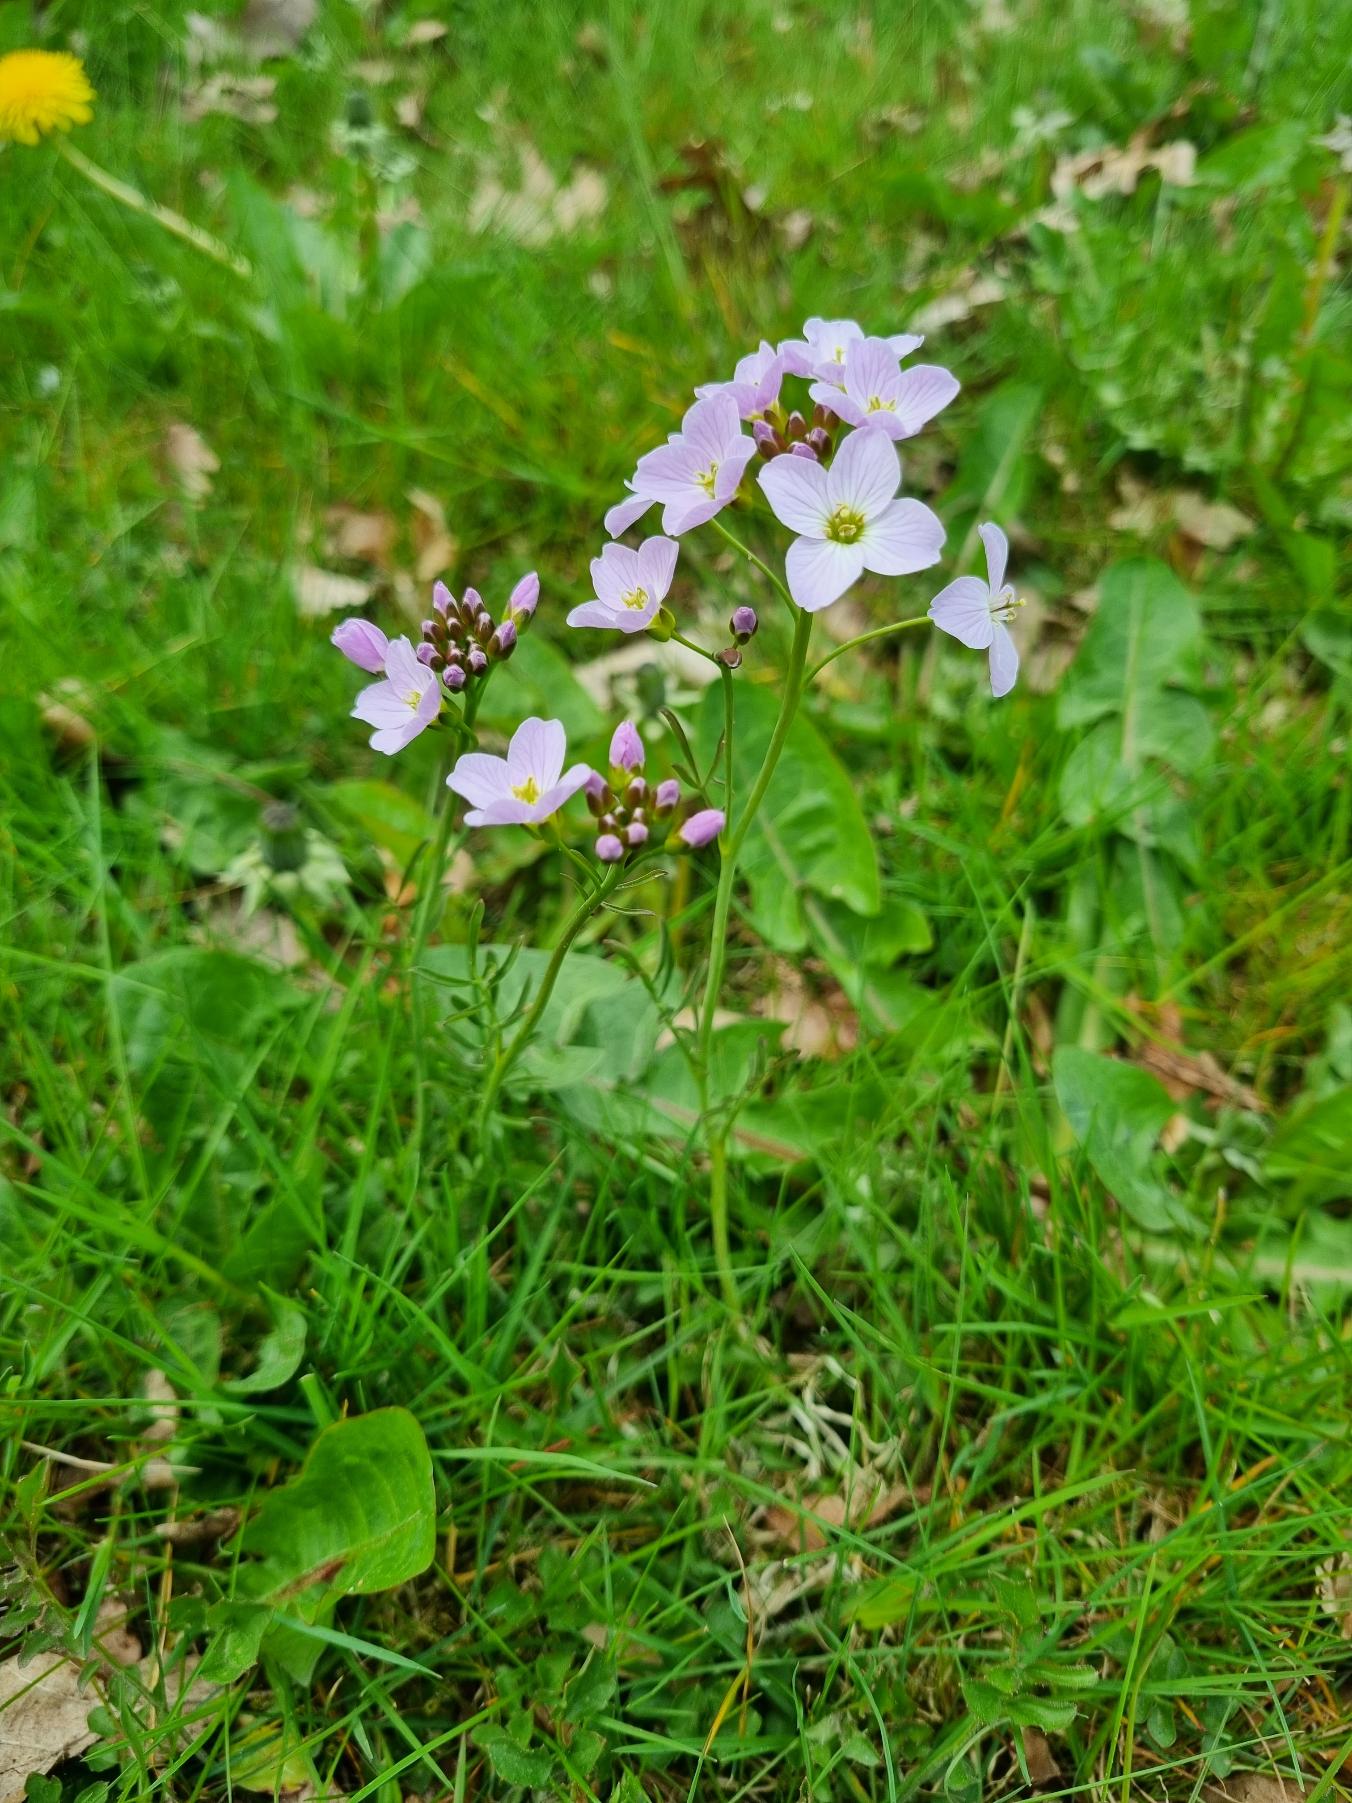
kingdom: Plantae
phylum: Tracheophyta
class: Magnoliopsida
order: Brassicales
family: Brassicaceae
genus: Cardamine
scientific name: Cardamine pratensis
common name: Engkarse
